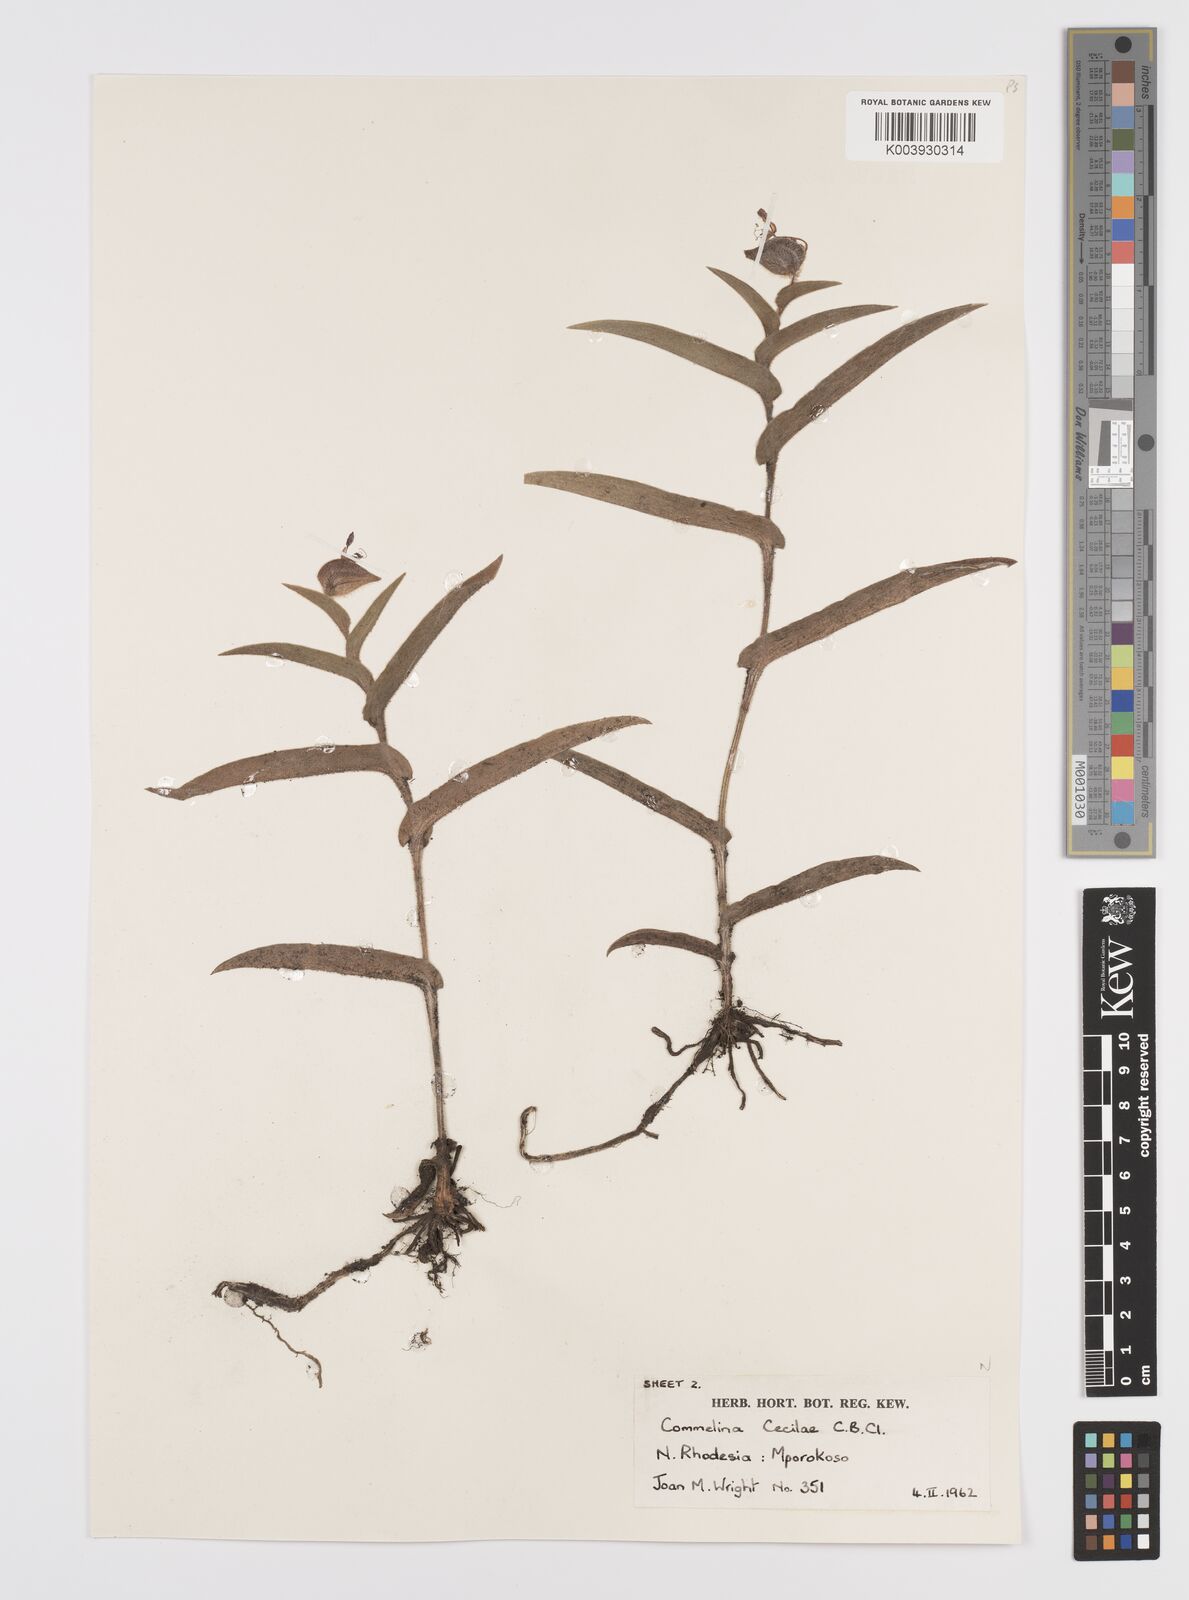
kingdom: Plantae
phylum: Tracheophyta
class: Liliopsida
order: Commelinales
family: Commelinaceae
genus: Commelina
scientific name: Commelina cecilae
